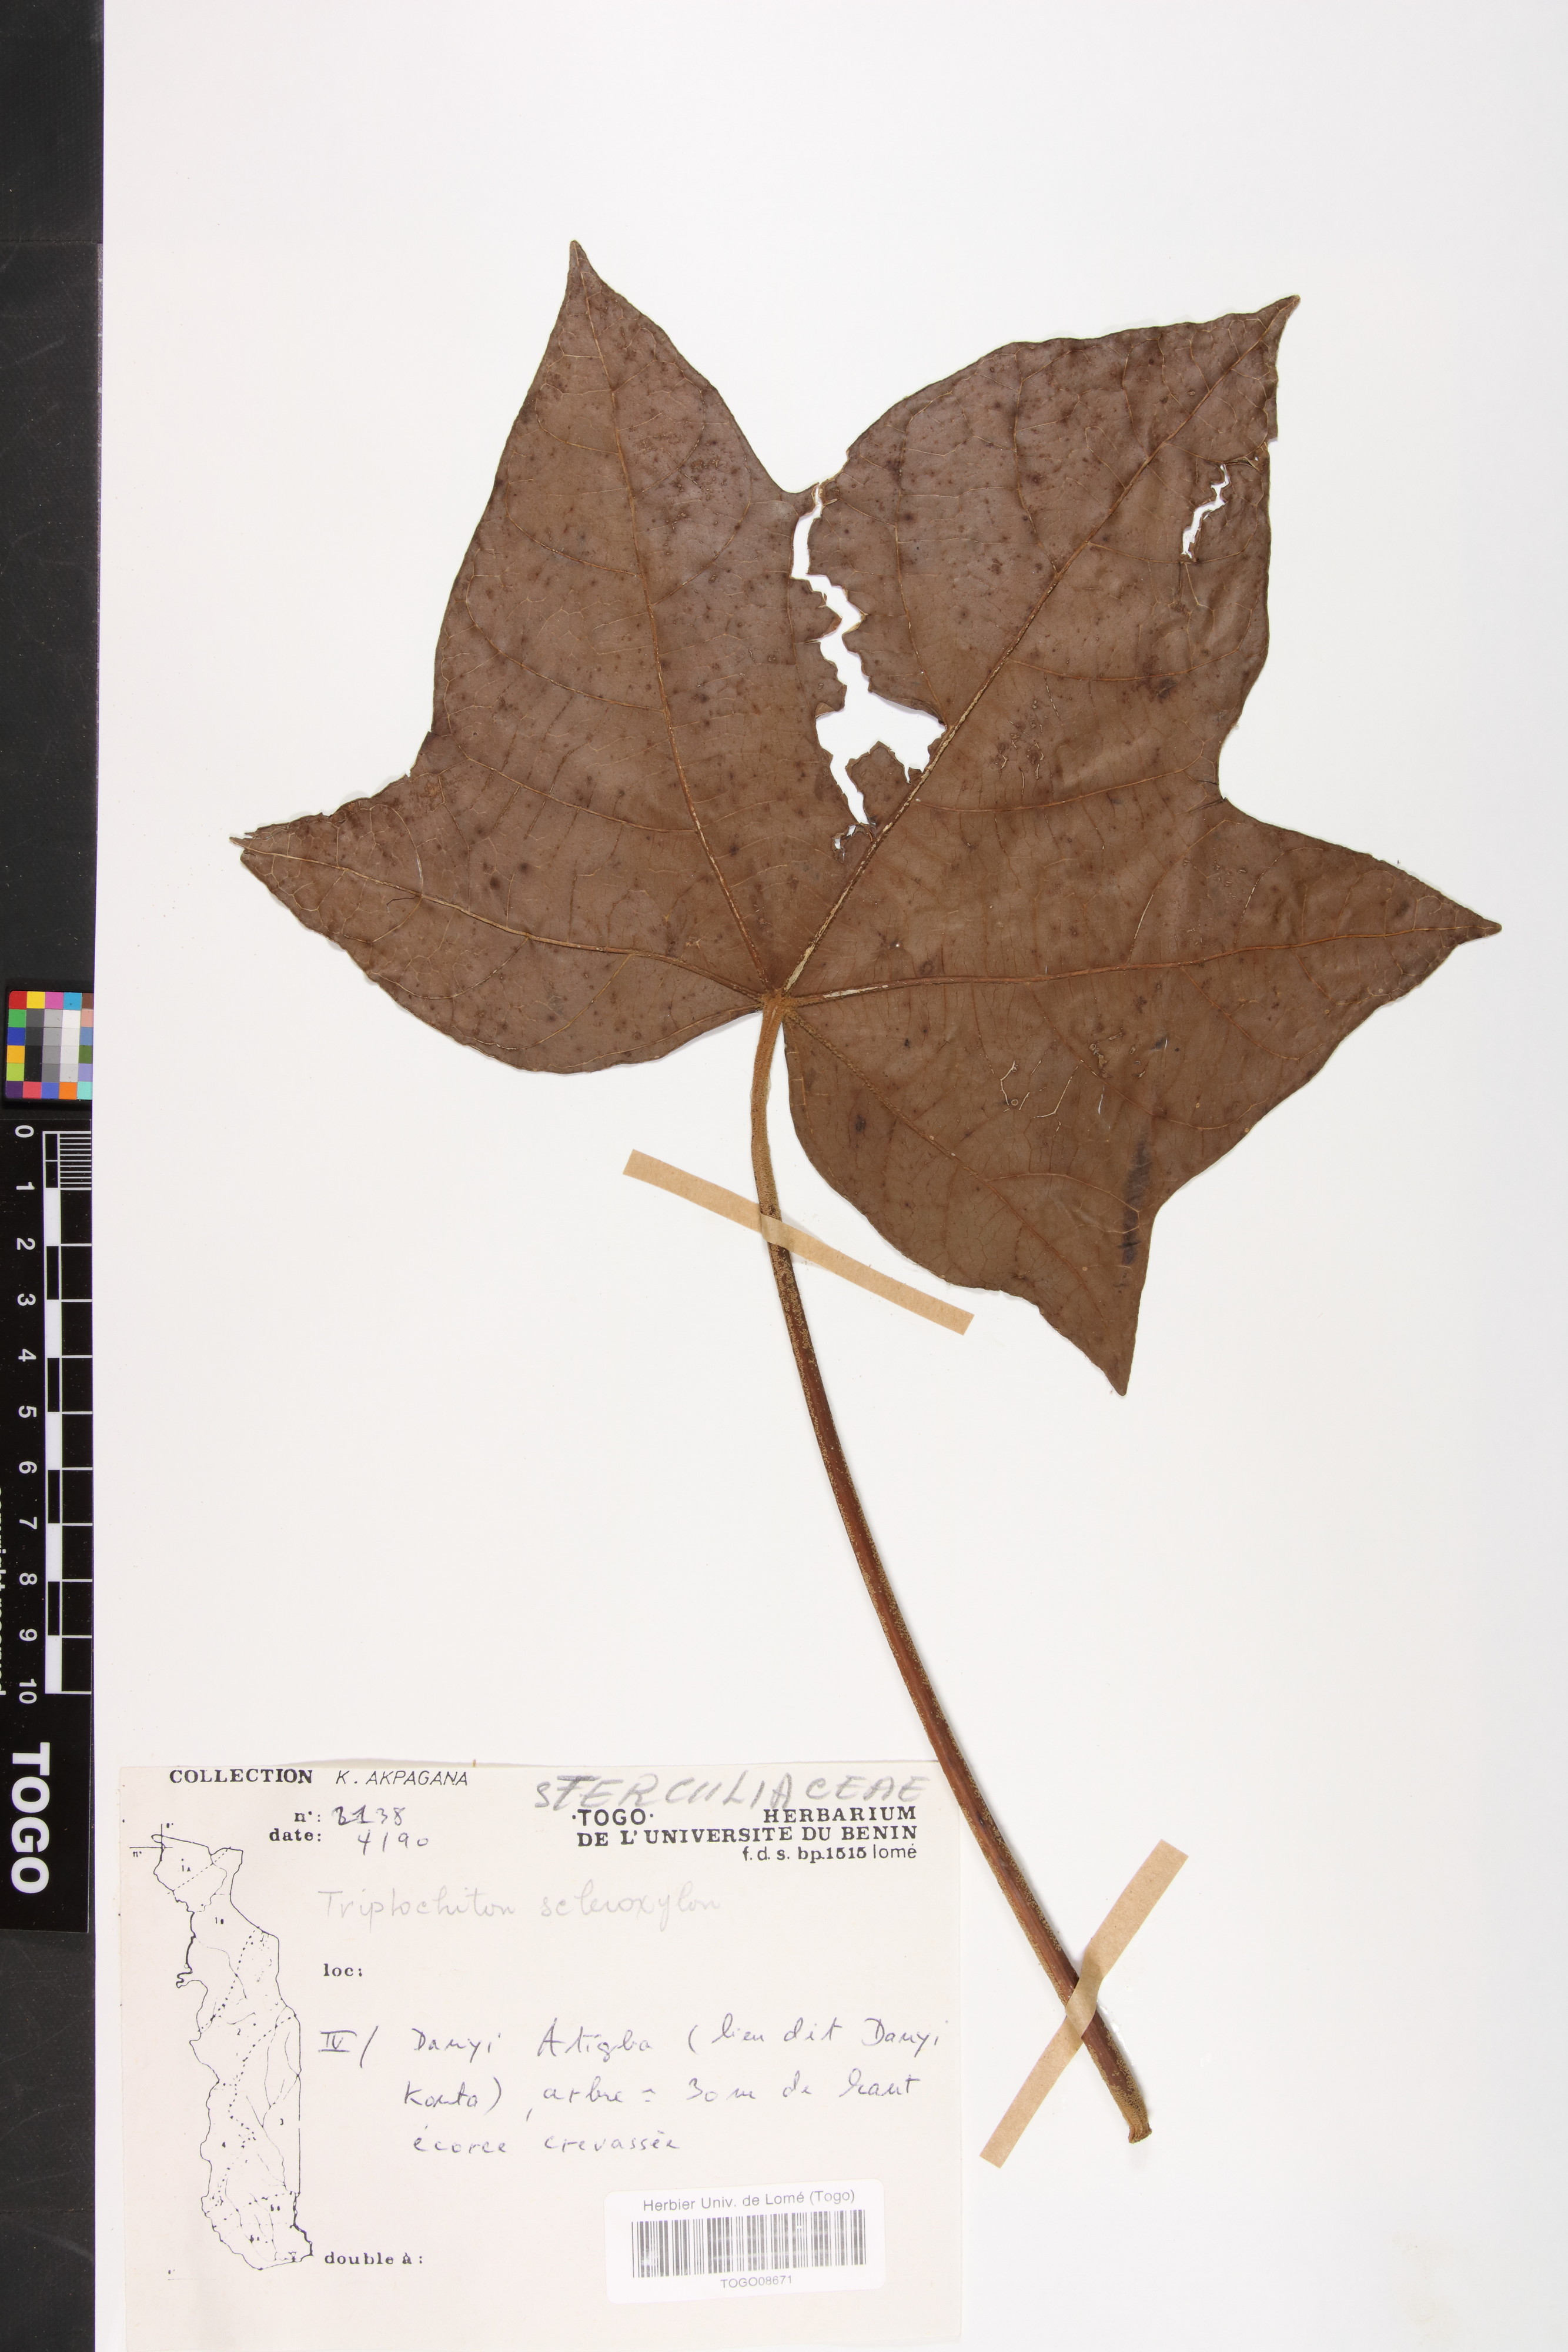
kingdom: Plantae
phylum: Tracheophyta
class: Magnoliopsida
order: Malvales
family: Malvaceae
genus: Triplochiton
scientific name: Triplochiton scleroxylon
